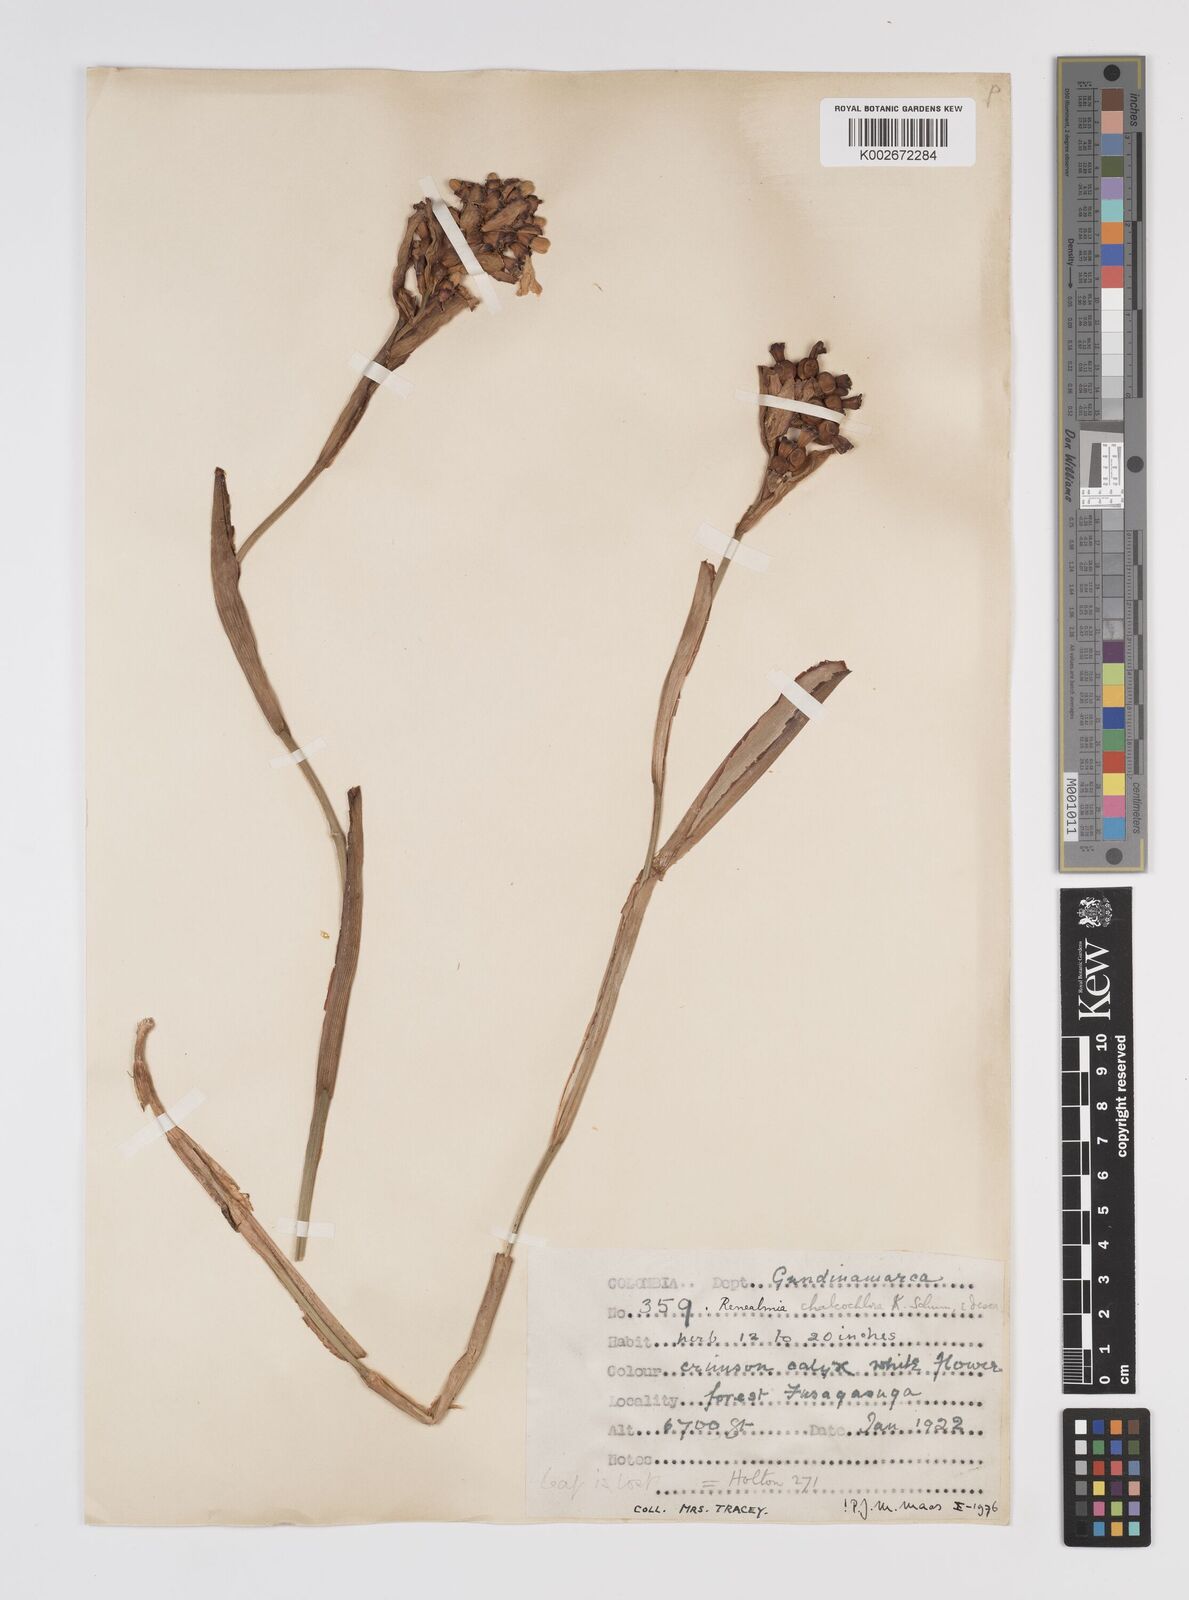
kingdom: Plantae
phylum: Tracheophyta
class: Liliopsida
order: Zingiberales
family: Zingiberaceae
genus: Renealmia
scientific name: Renealmia chalcochlora
